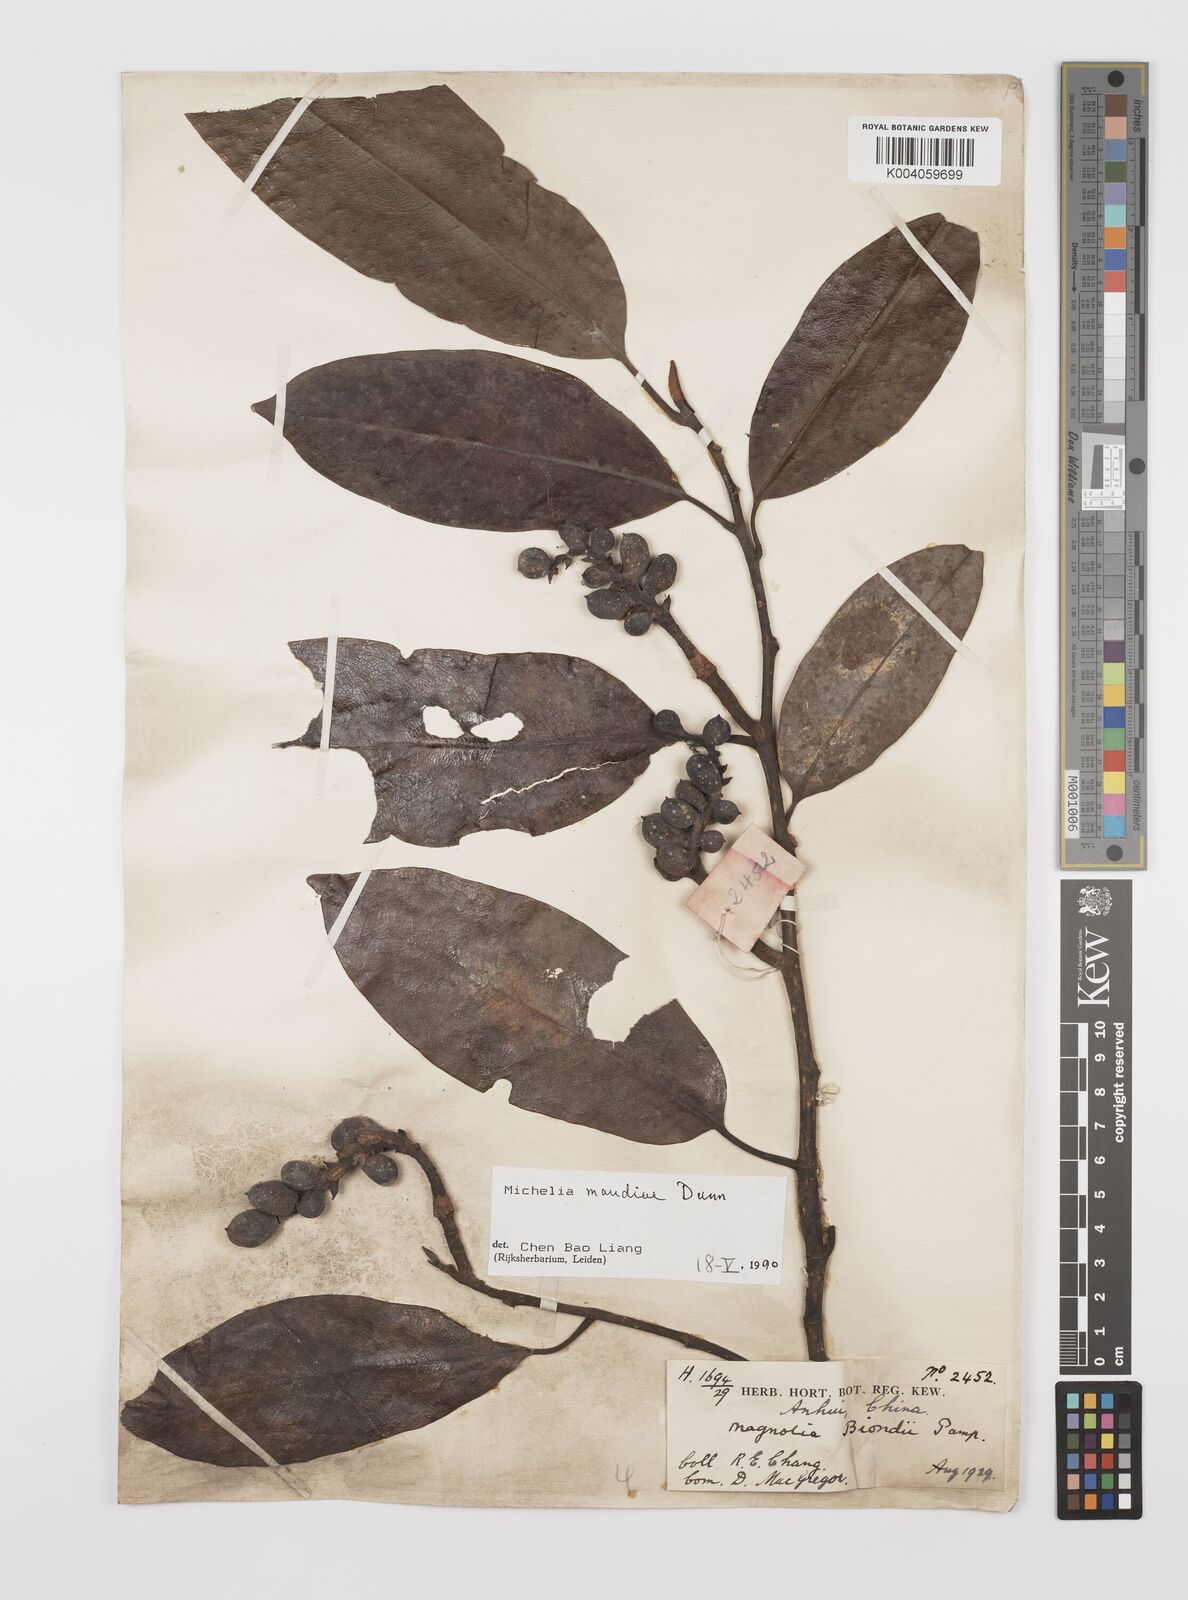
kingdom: Plantae
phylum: Tracheophyta
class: Magnoliopsida
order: Magnoliales
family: Magnoliaceae
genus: Magnolia
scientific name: Magnolia maudiae
